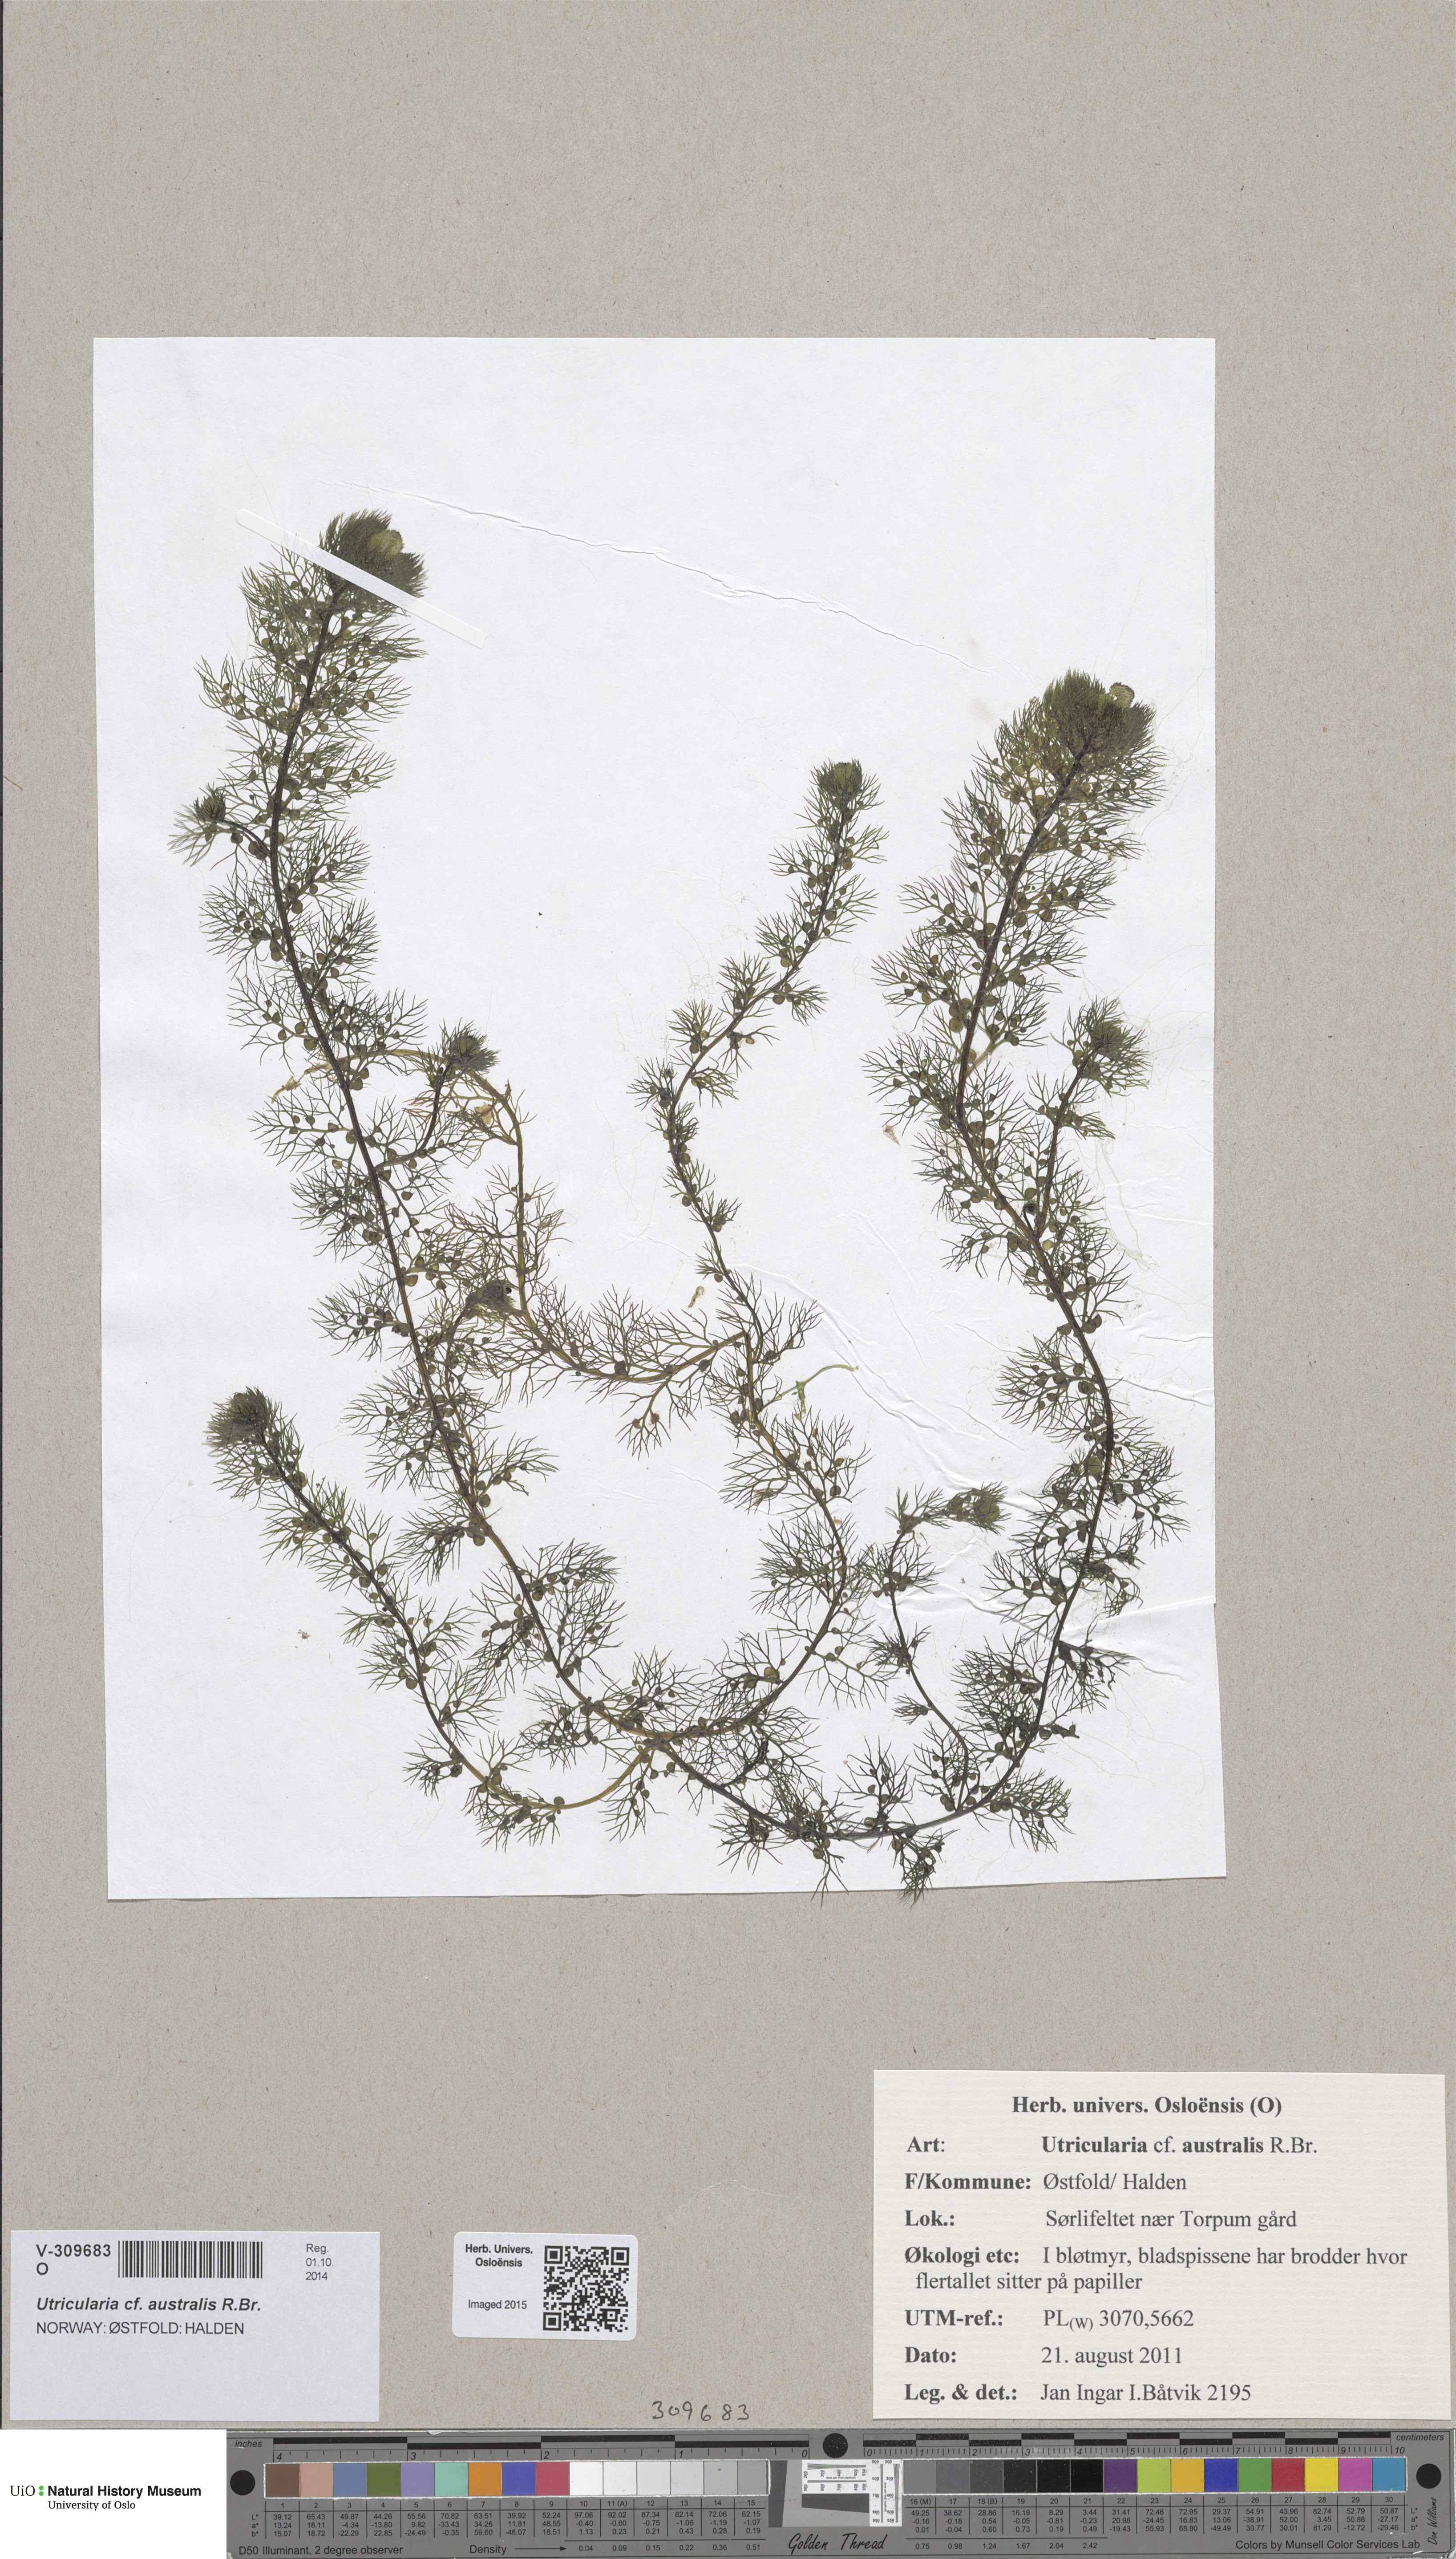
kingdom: Plantae
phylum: Tracheophyta
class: Magnoliopsida
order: Lamiales
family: Lentibulariaceae
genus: Utricularia
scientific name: Utricularia australis
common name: Bladderwort
